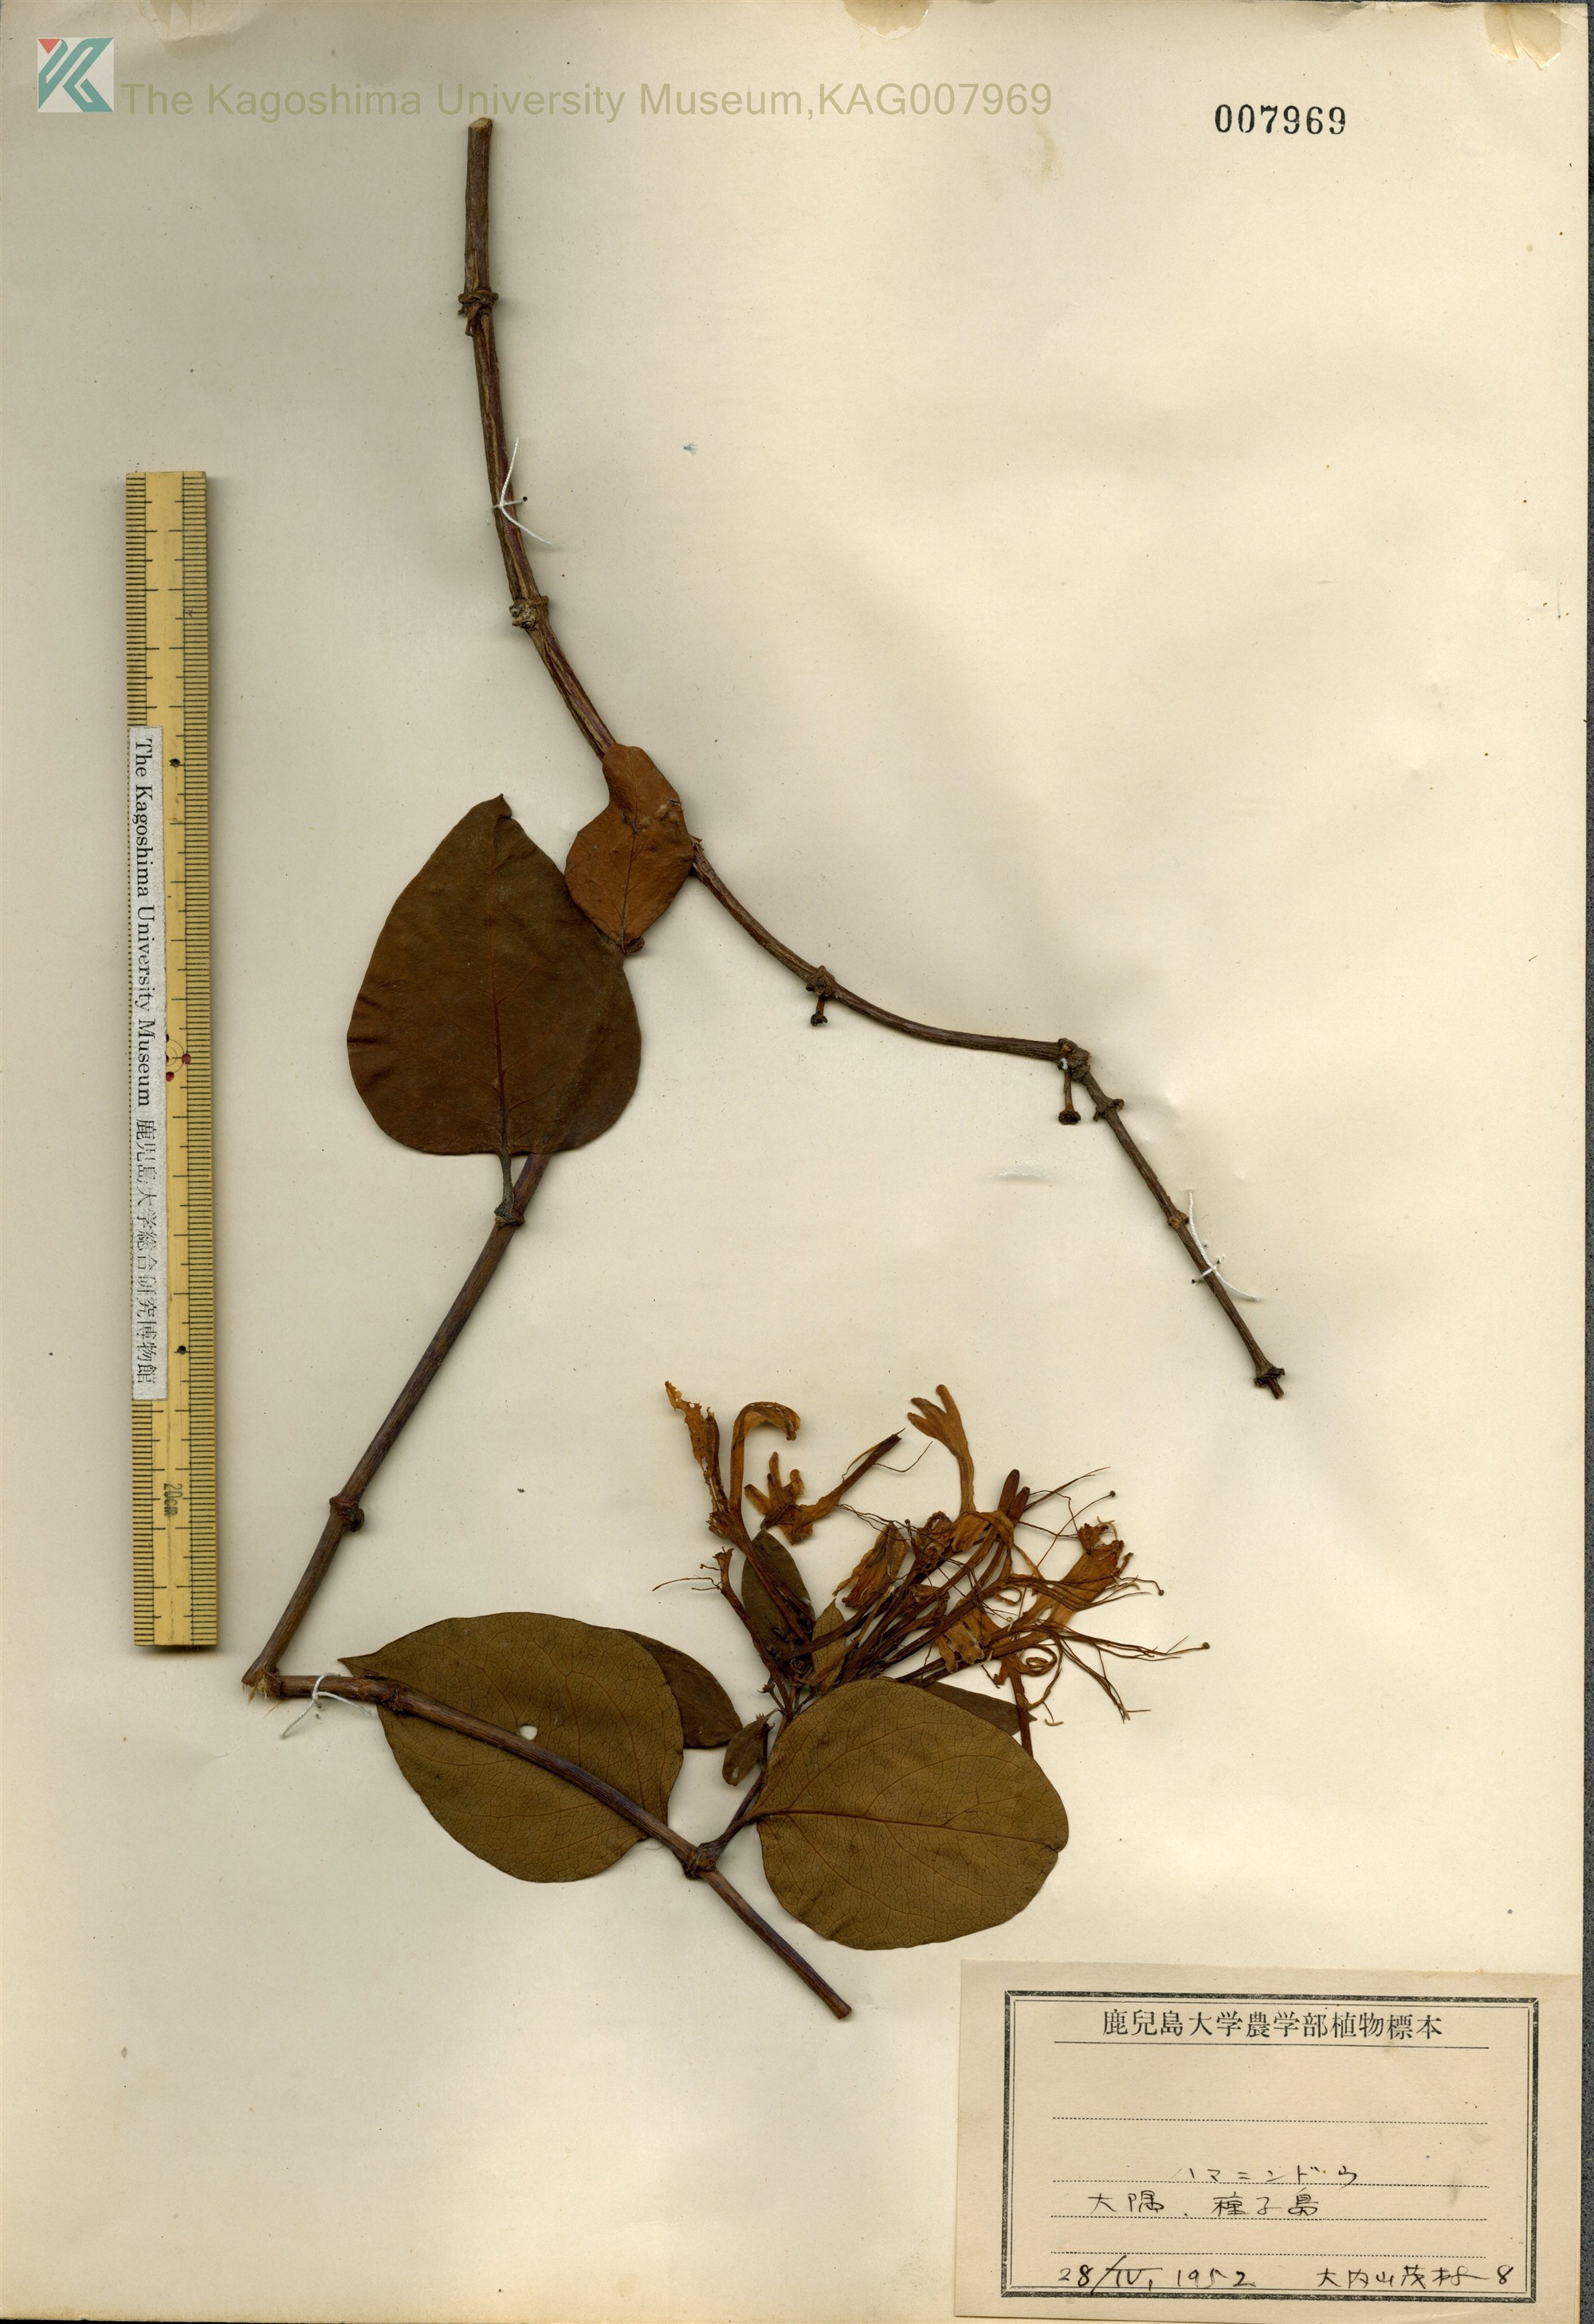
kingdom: Plantae
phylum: Tracheophyta
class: Magnoliopsida
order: Dipsacales
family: Caprifoliaceae
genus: Lonicera
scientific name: Lonicera affinis
